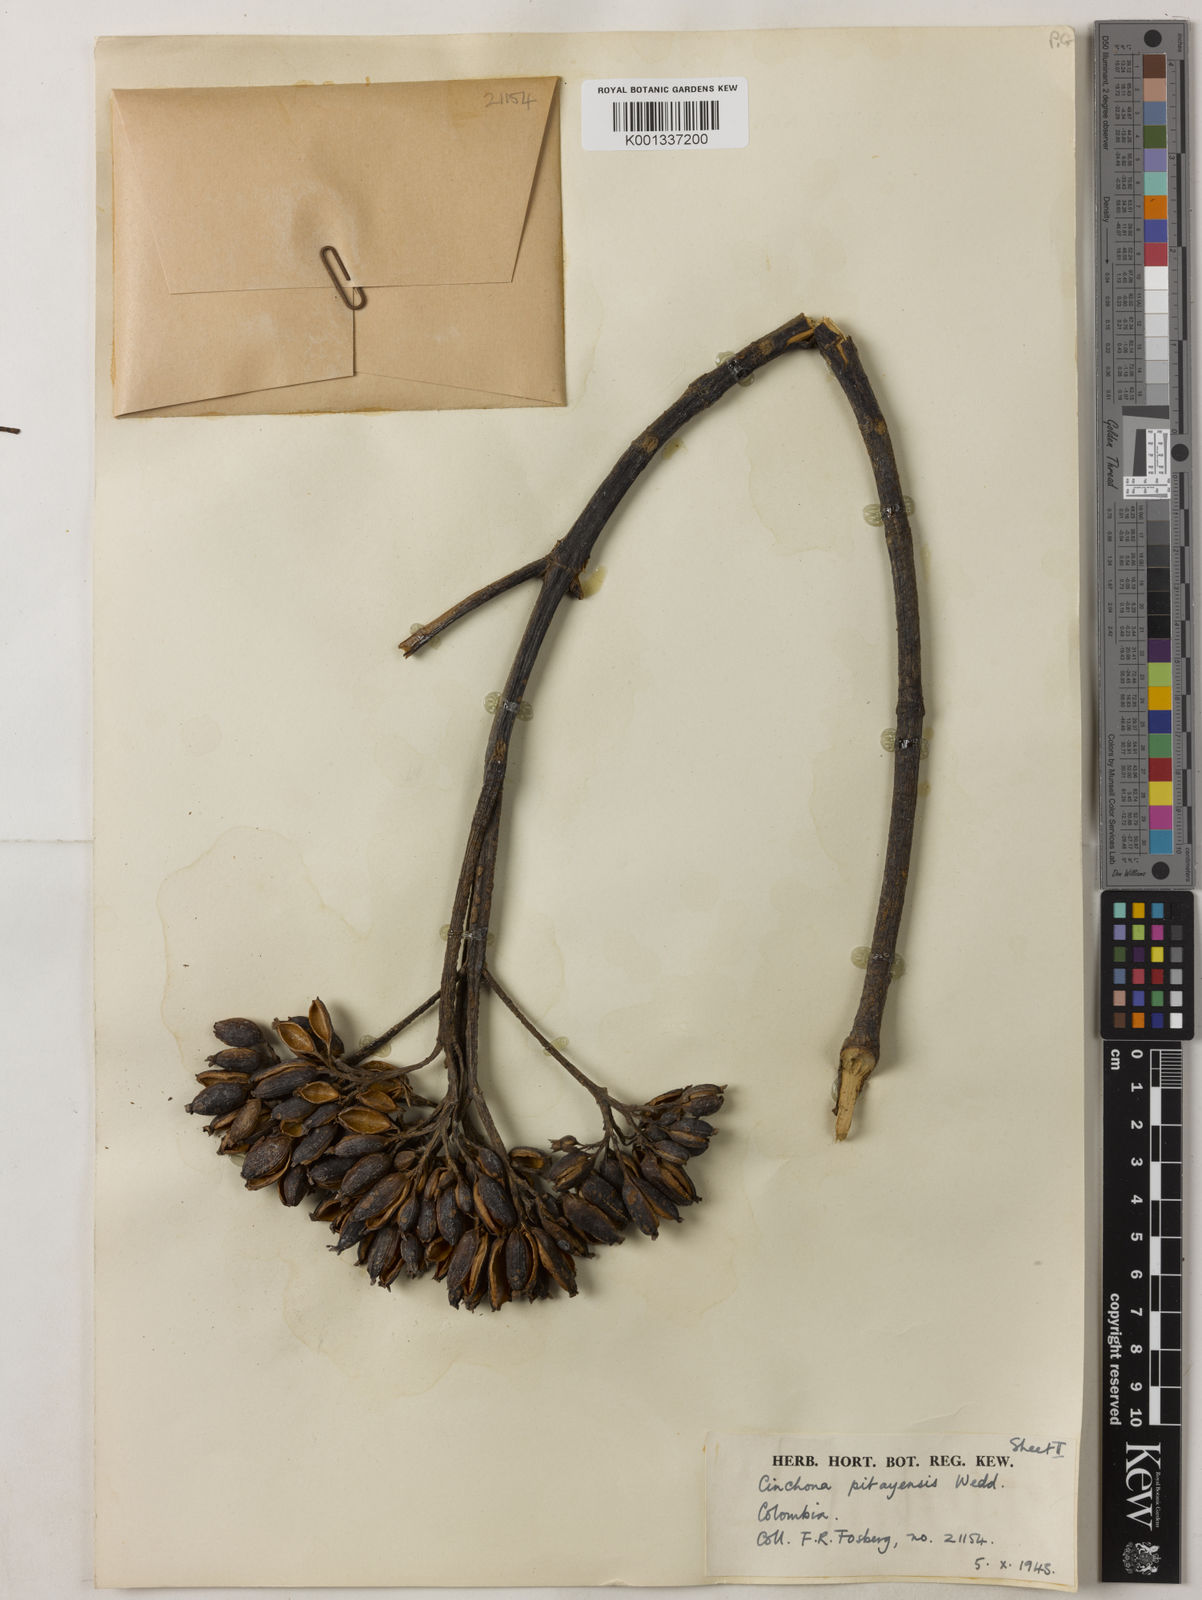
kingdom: Plantae
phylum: Tracheophyta
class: Magnoliopsida
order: Gentianales
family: Rubiaceae
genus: Cinchona
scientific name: Cinchona pitayensis
